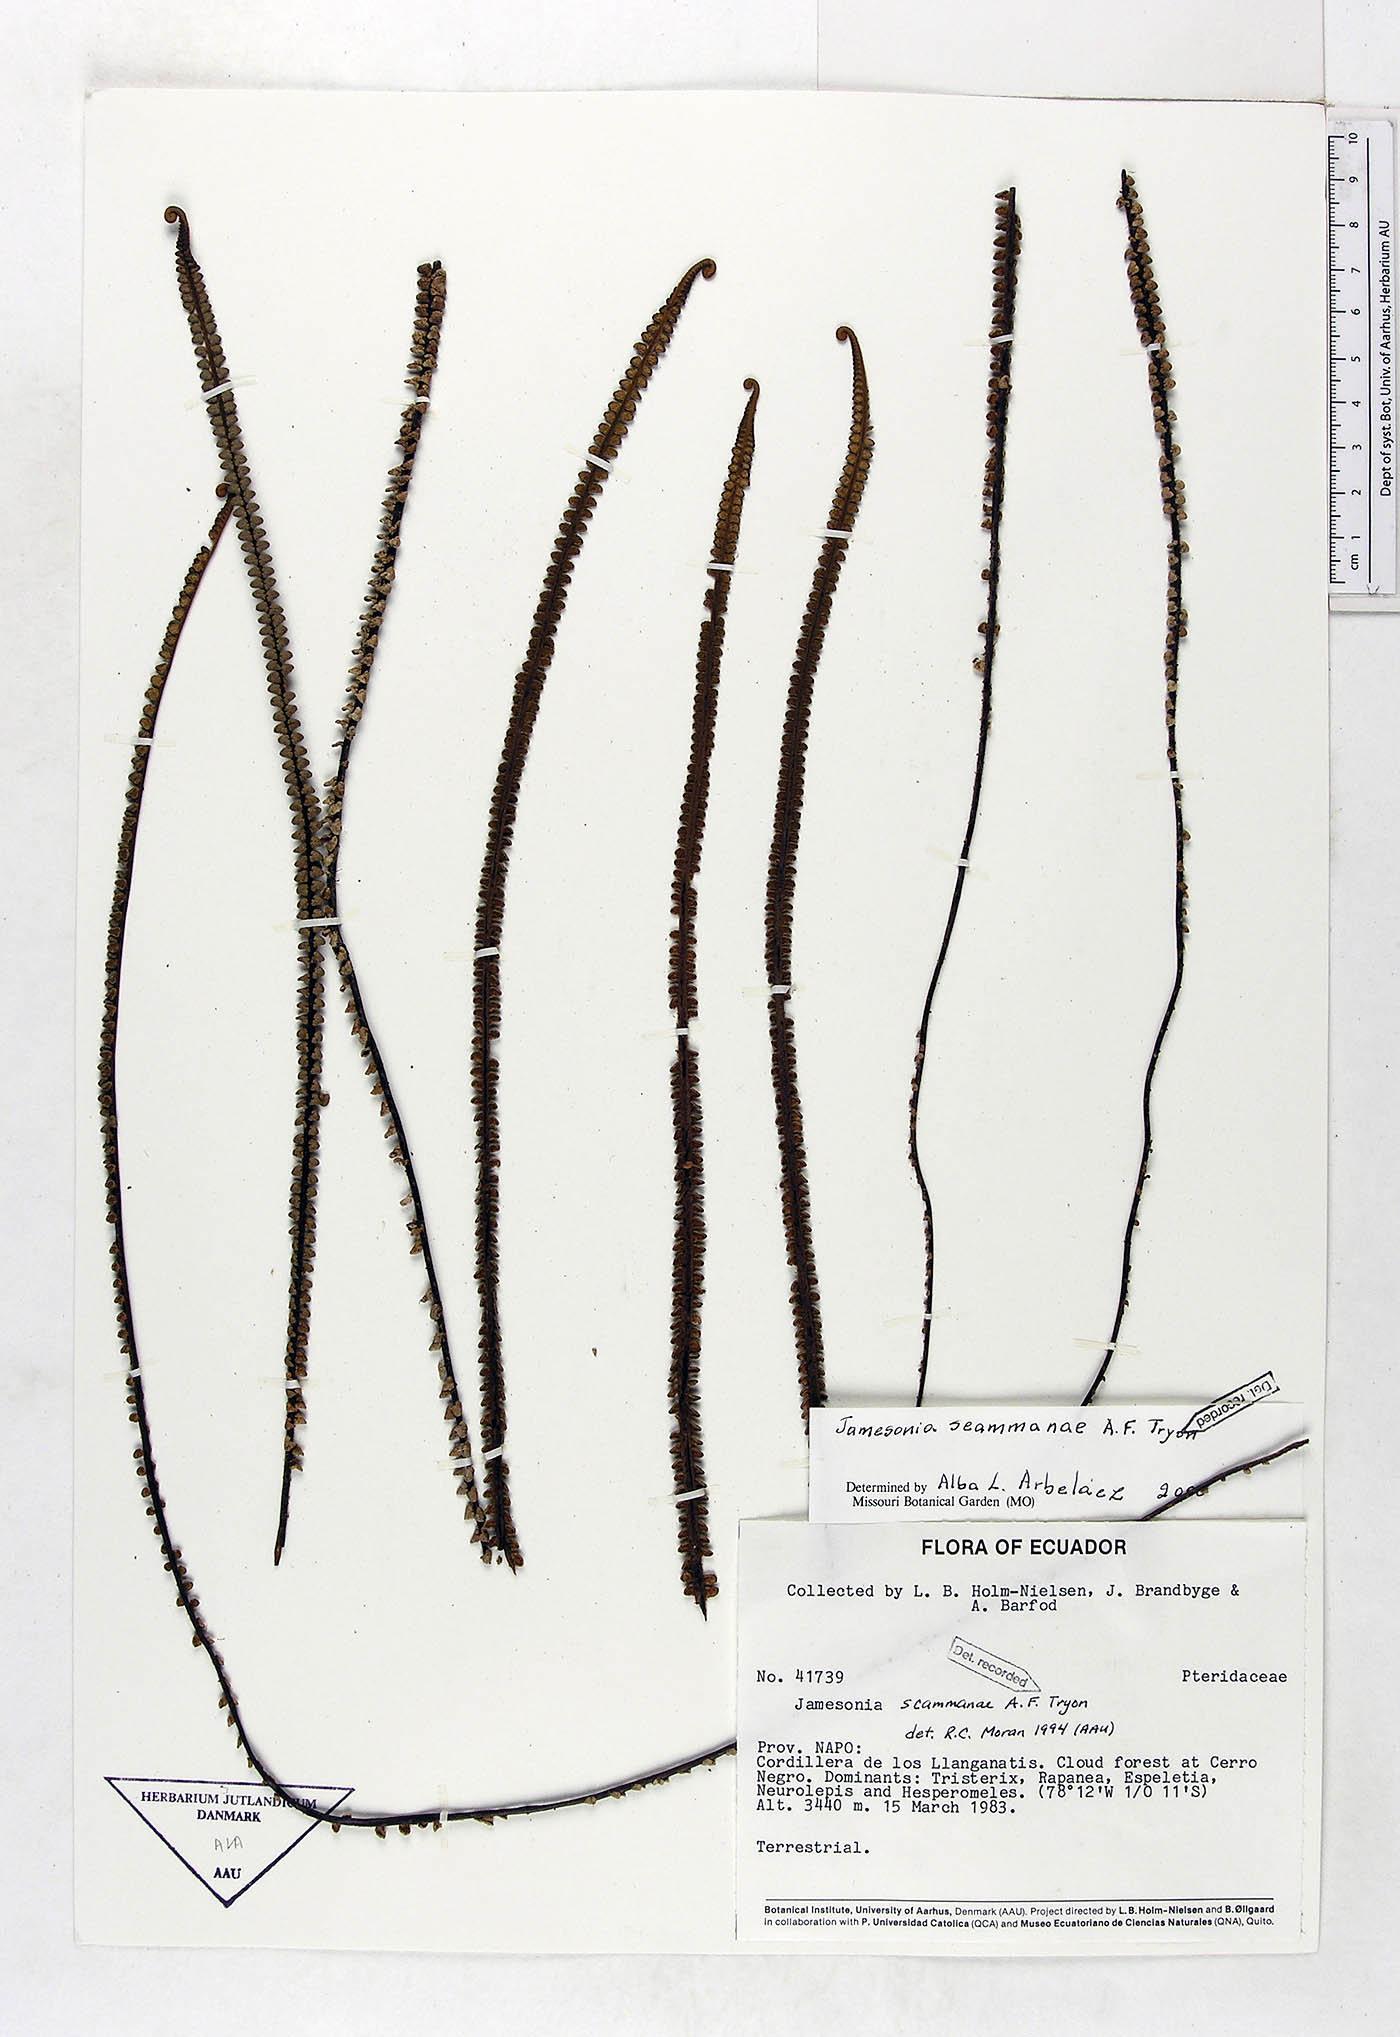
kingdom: Plantae
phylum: Tracheophyta
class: Polypodiopsida
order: Polypodiales
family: Pteridaceae
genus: Jamesonia
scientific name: Jamesonia scammanae
